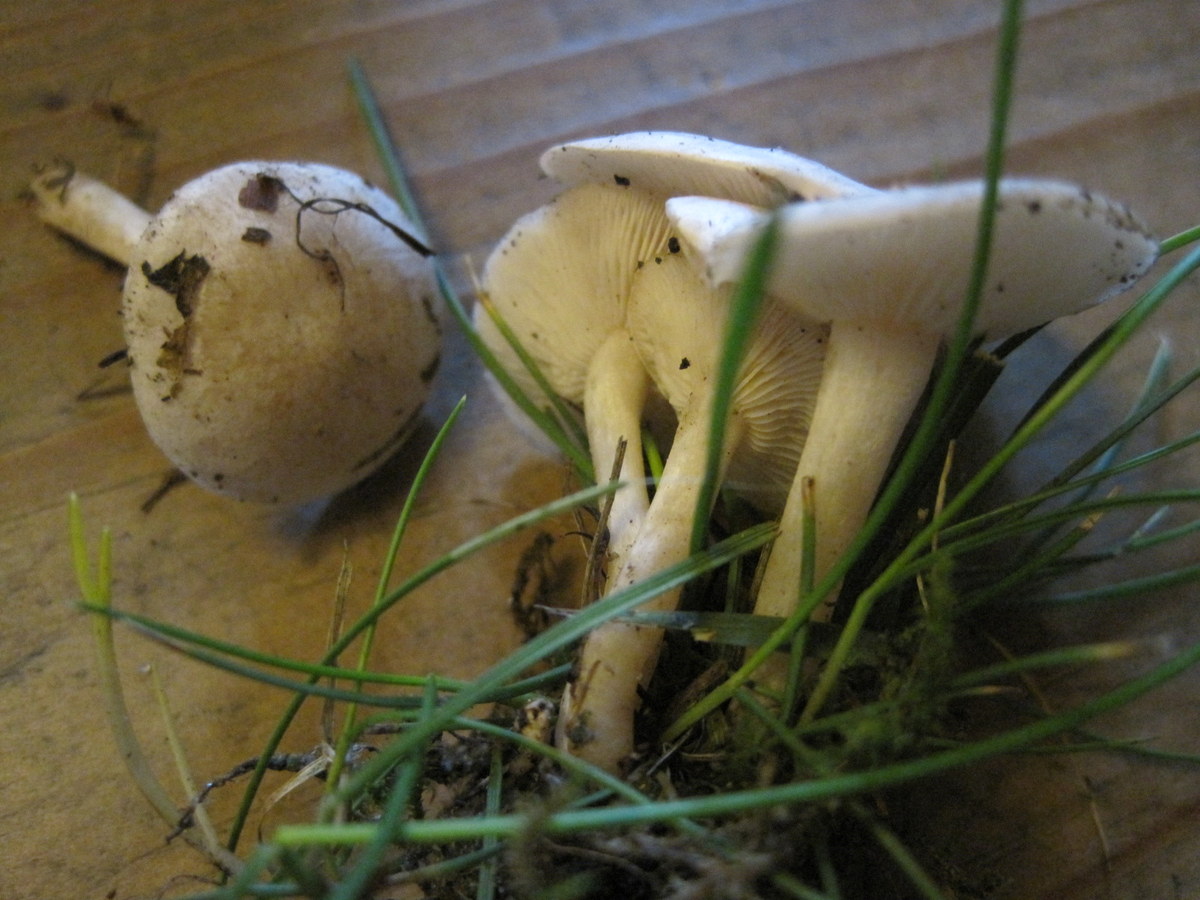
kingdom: Fungi
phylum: Basidiomycota
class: Agaricomycetes
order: Agaricales
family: Tricholomataceae
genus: Clitocybe
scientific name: Clitocybe rivulosa
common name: eng-tragthat
